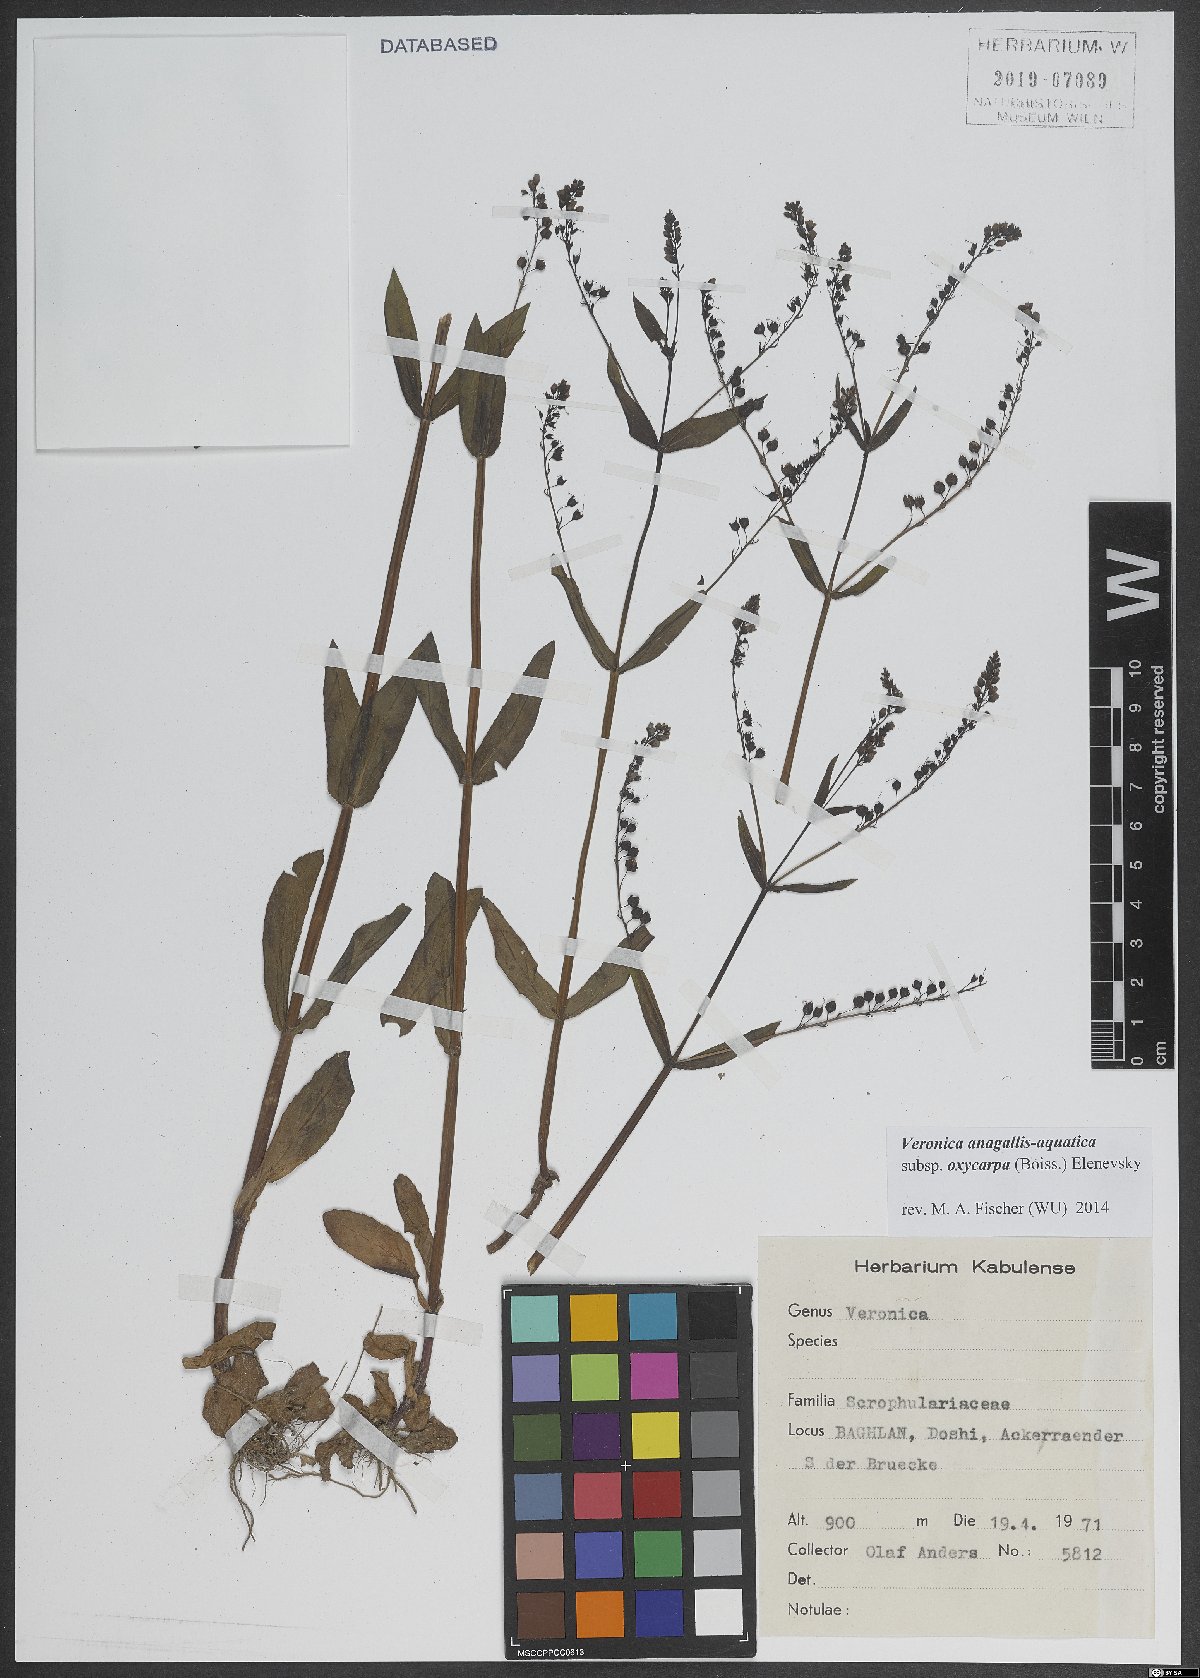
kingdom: Plantae
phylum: Tracheophyta
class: Magnoliopsida
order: Lamiales
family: Plantaginaceae
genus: Veronica
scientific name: Veronica oxycarpa
